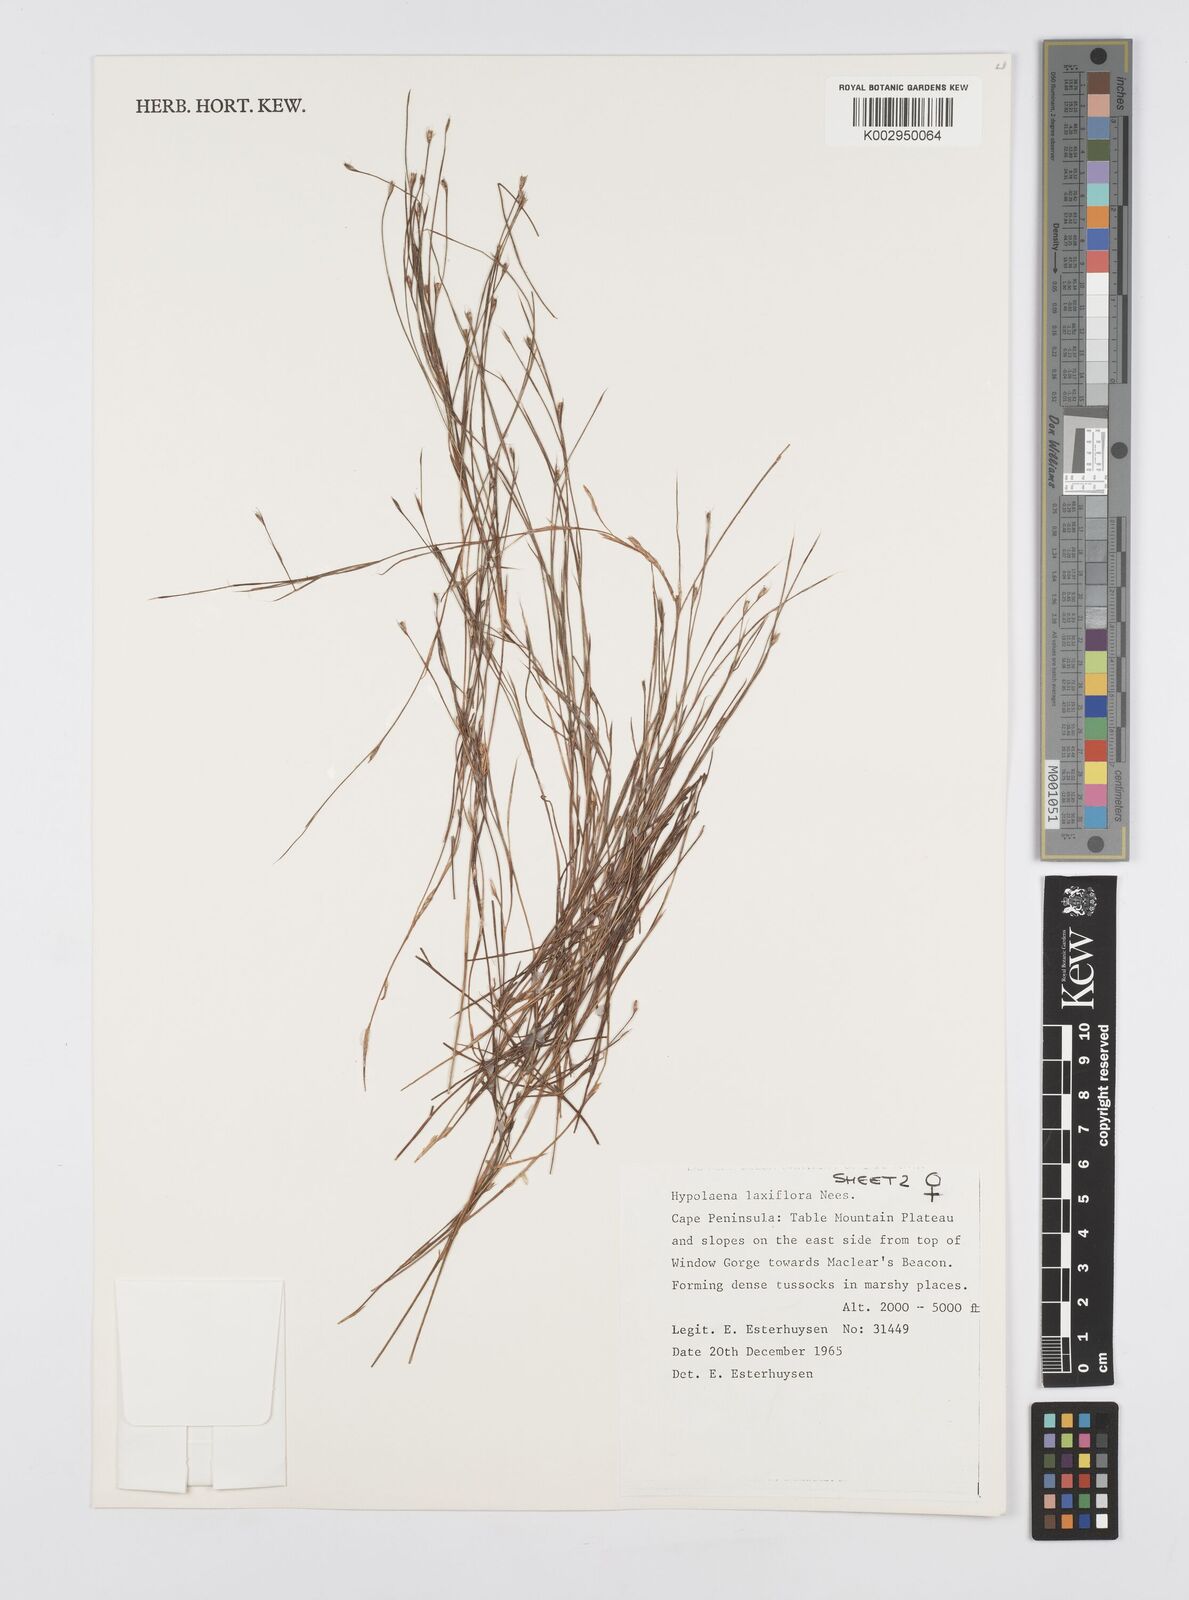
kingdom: Plantae
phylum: Tracheophyta
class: Liliopsida
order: Poales
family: Restionaceae
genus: Anthochortus
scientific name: Anthochortus laxiflorus
